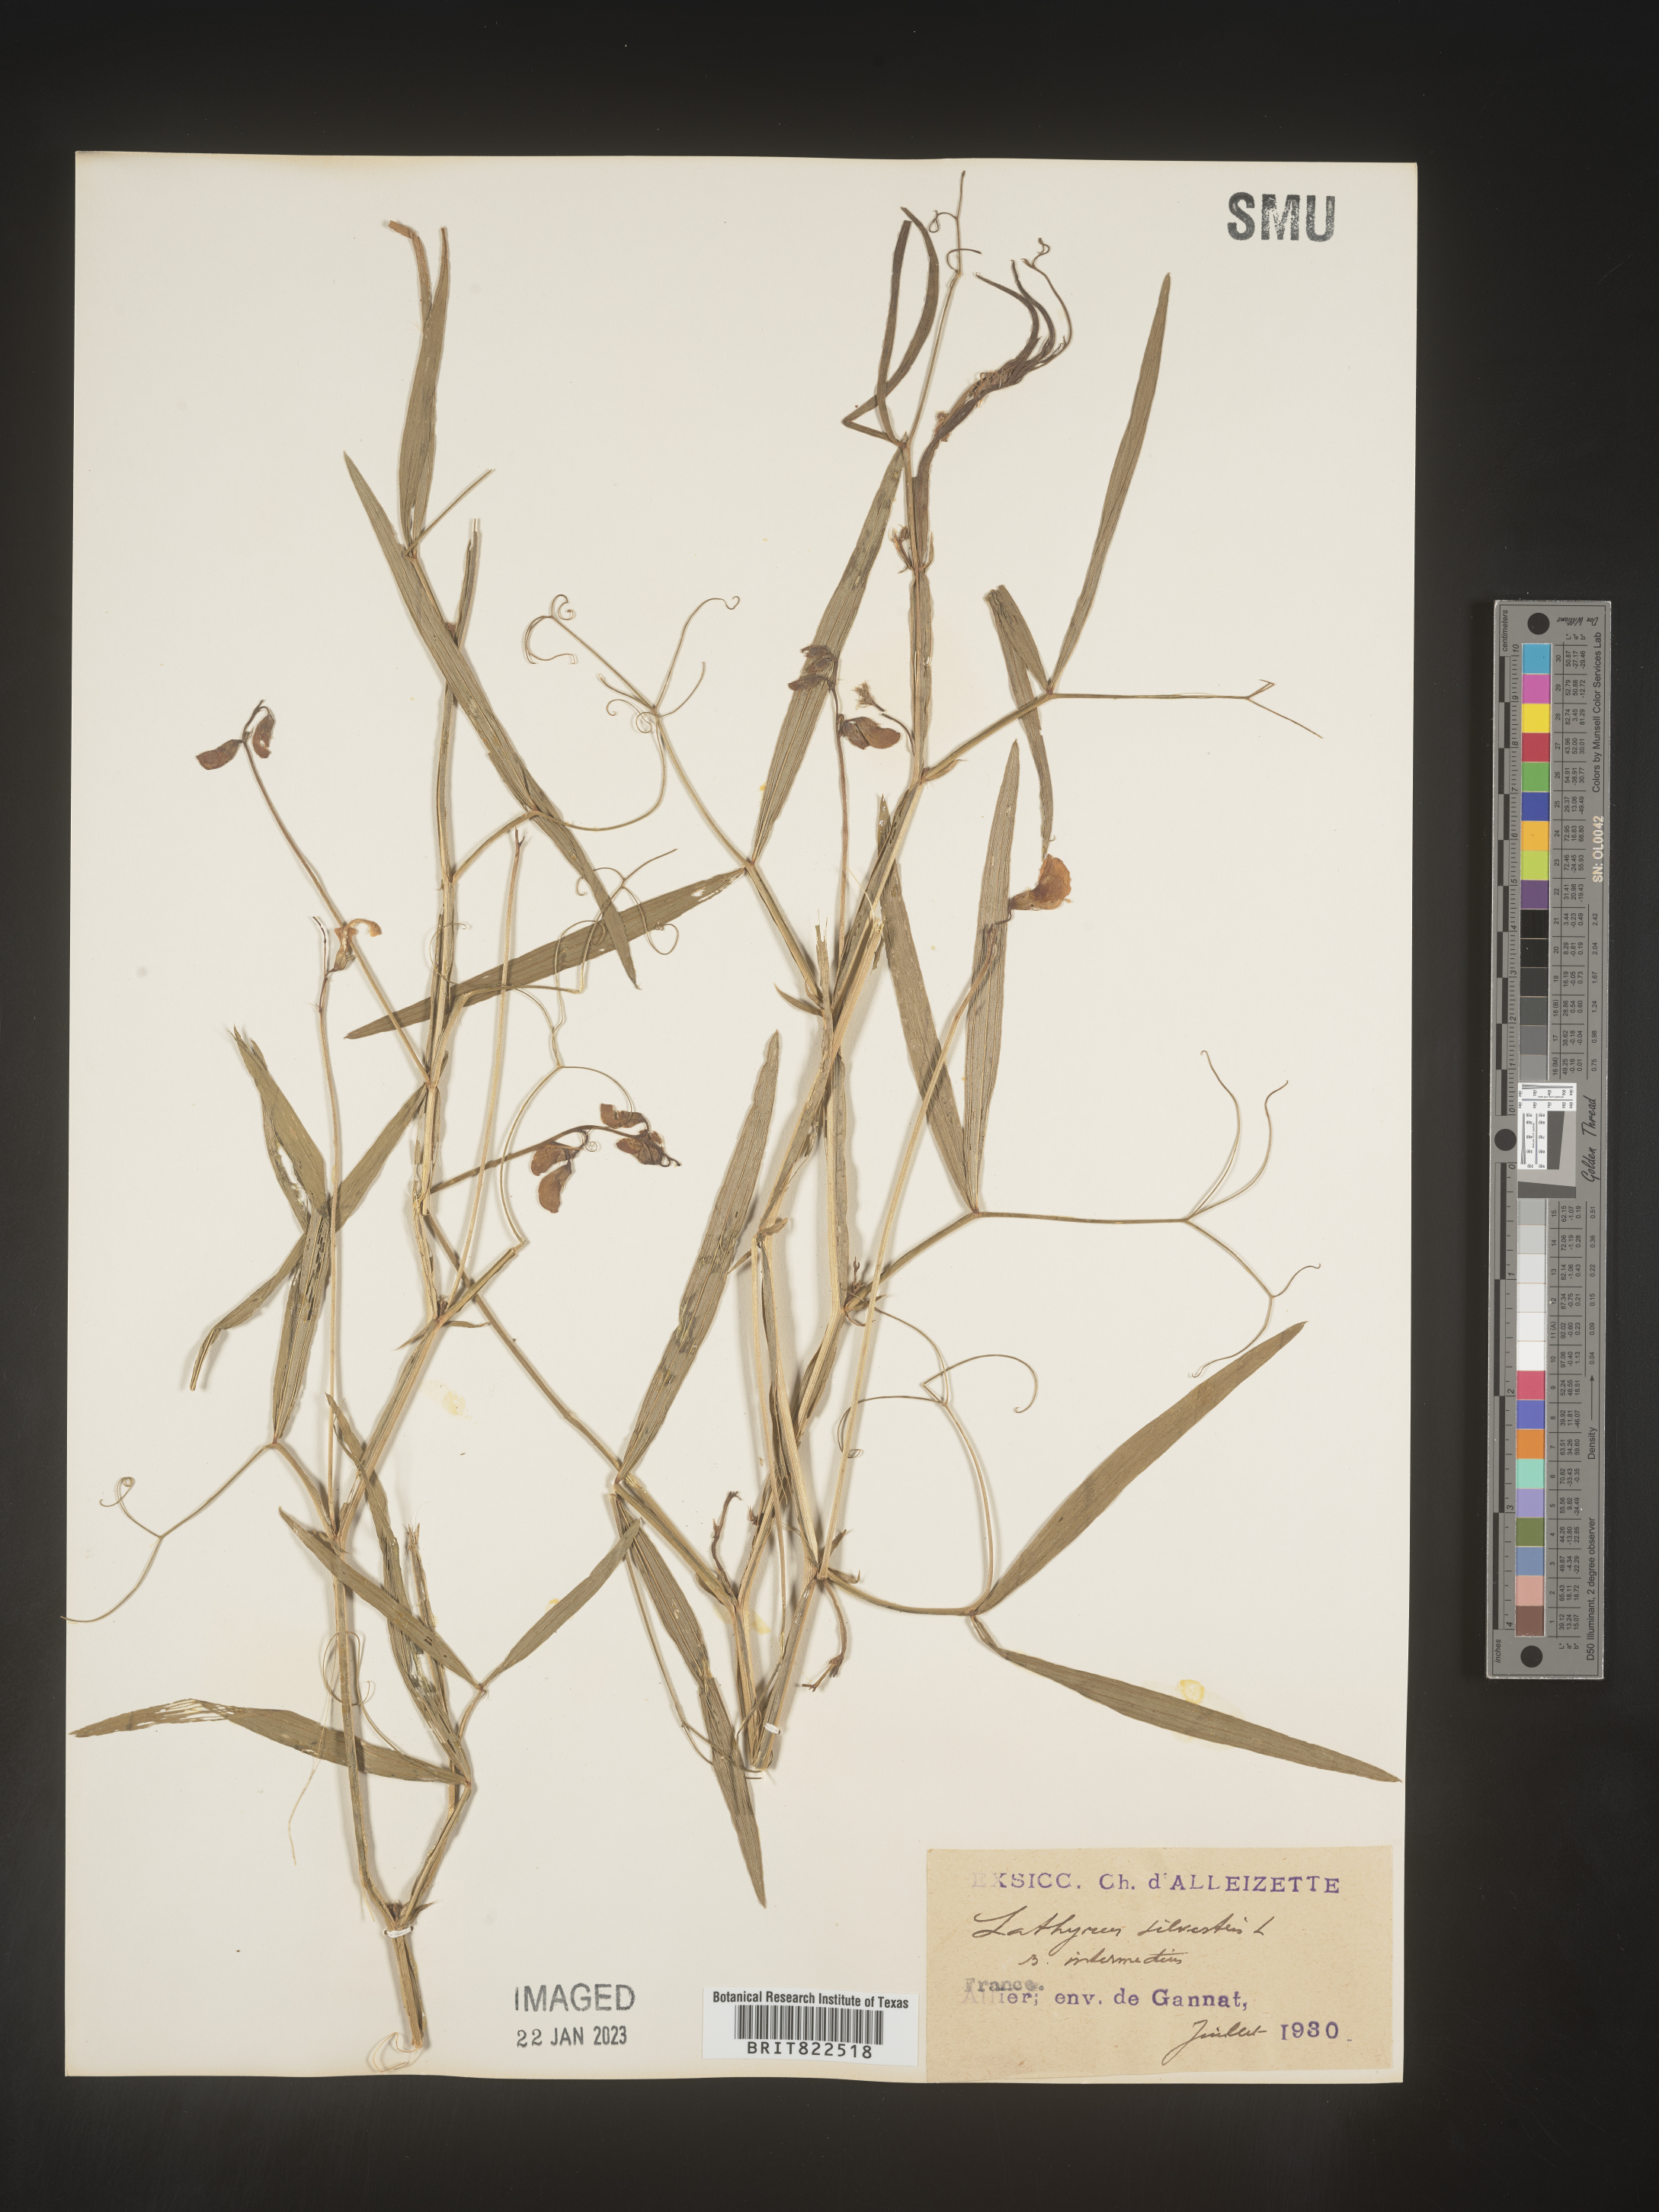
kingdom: Plantae
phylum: Tracheophyta
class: Magnoliopsida
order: Fabales
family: Fabaceae
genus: Lathyrus
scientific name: Lathyrus
